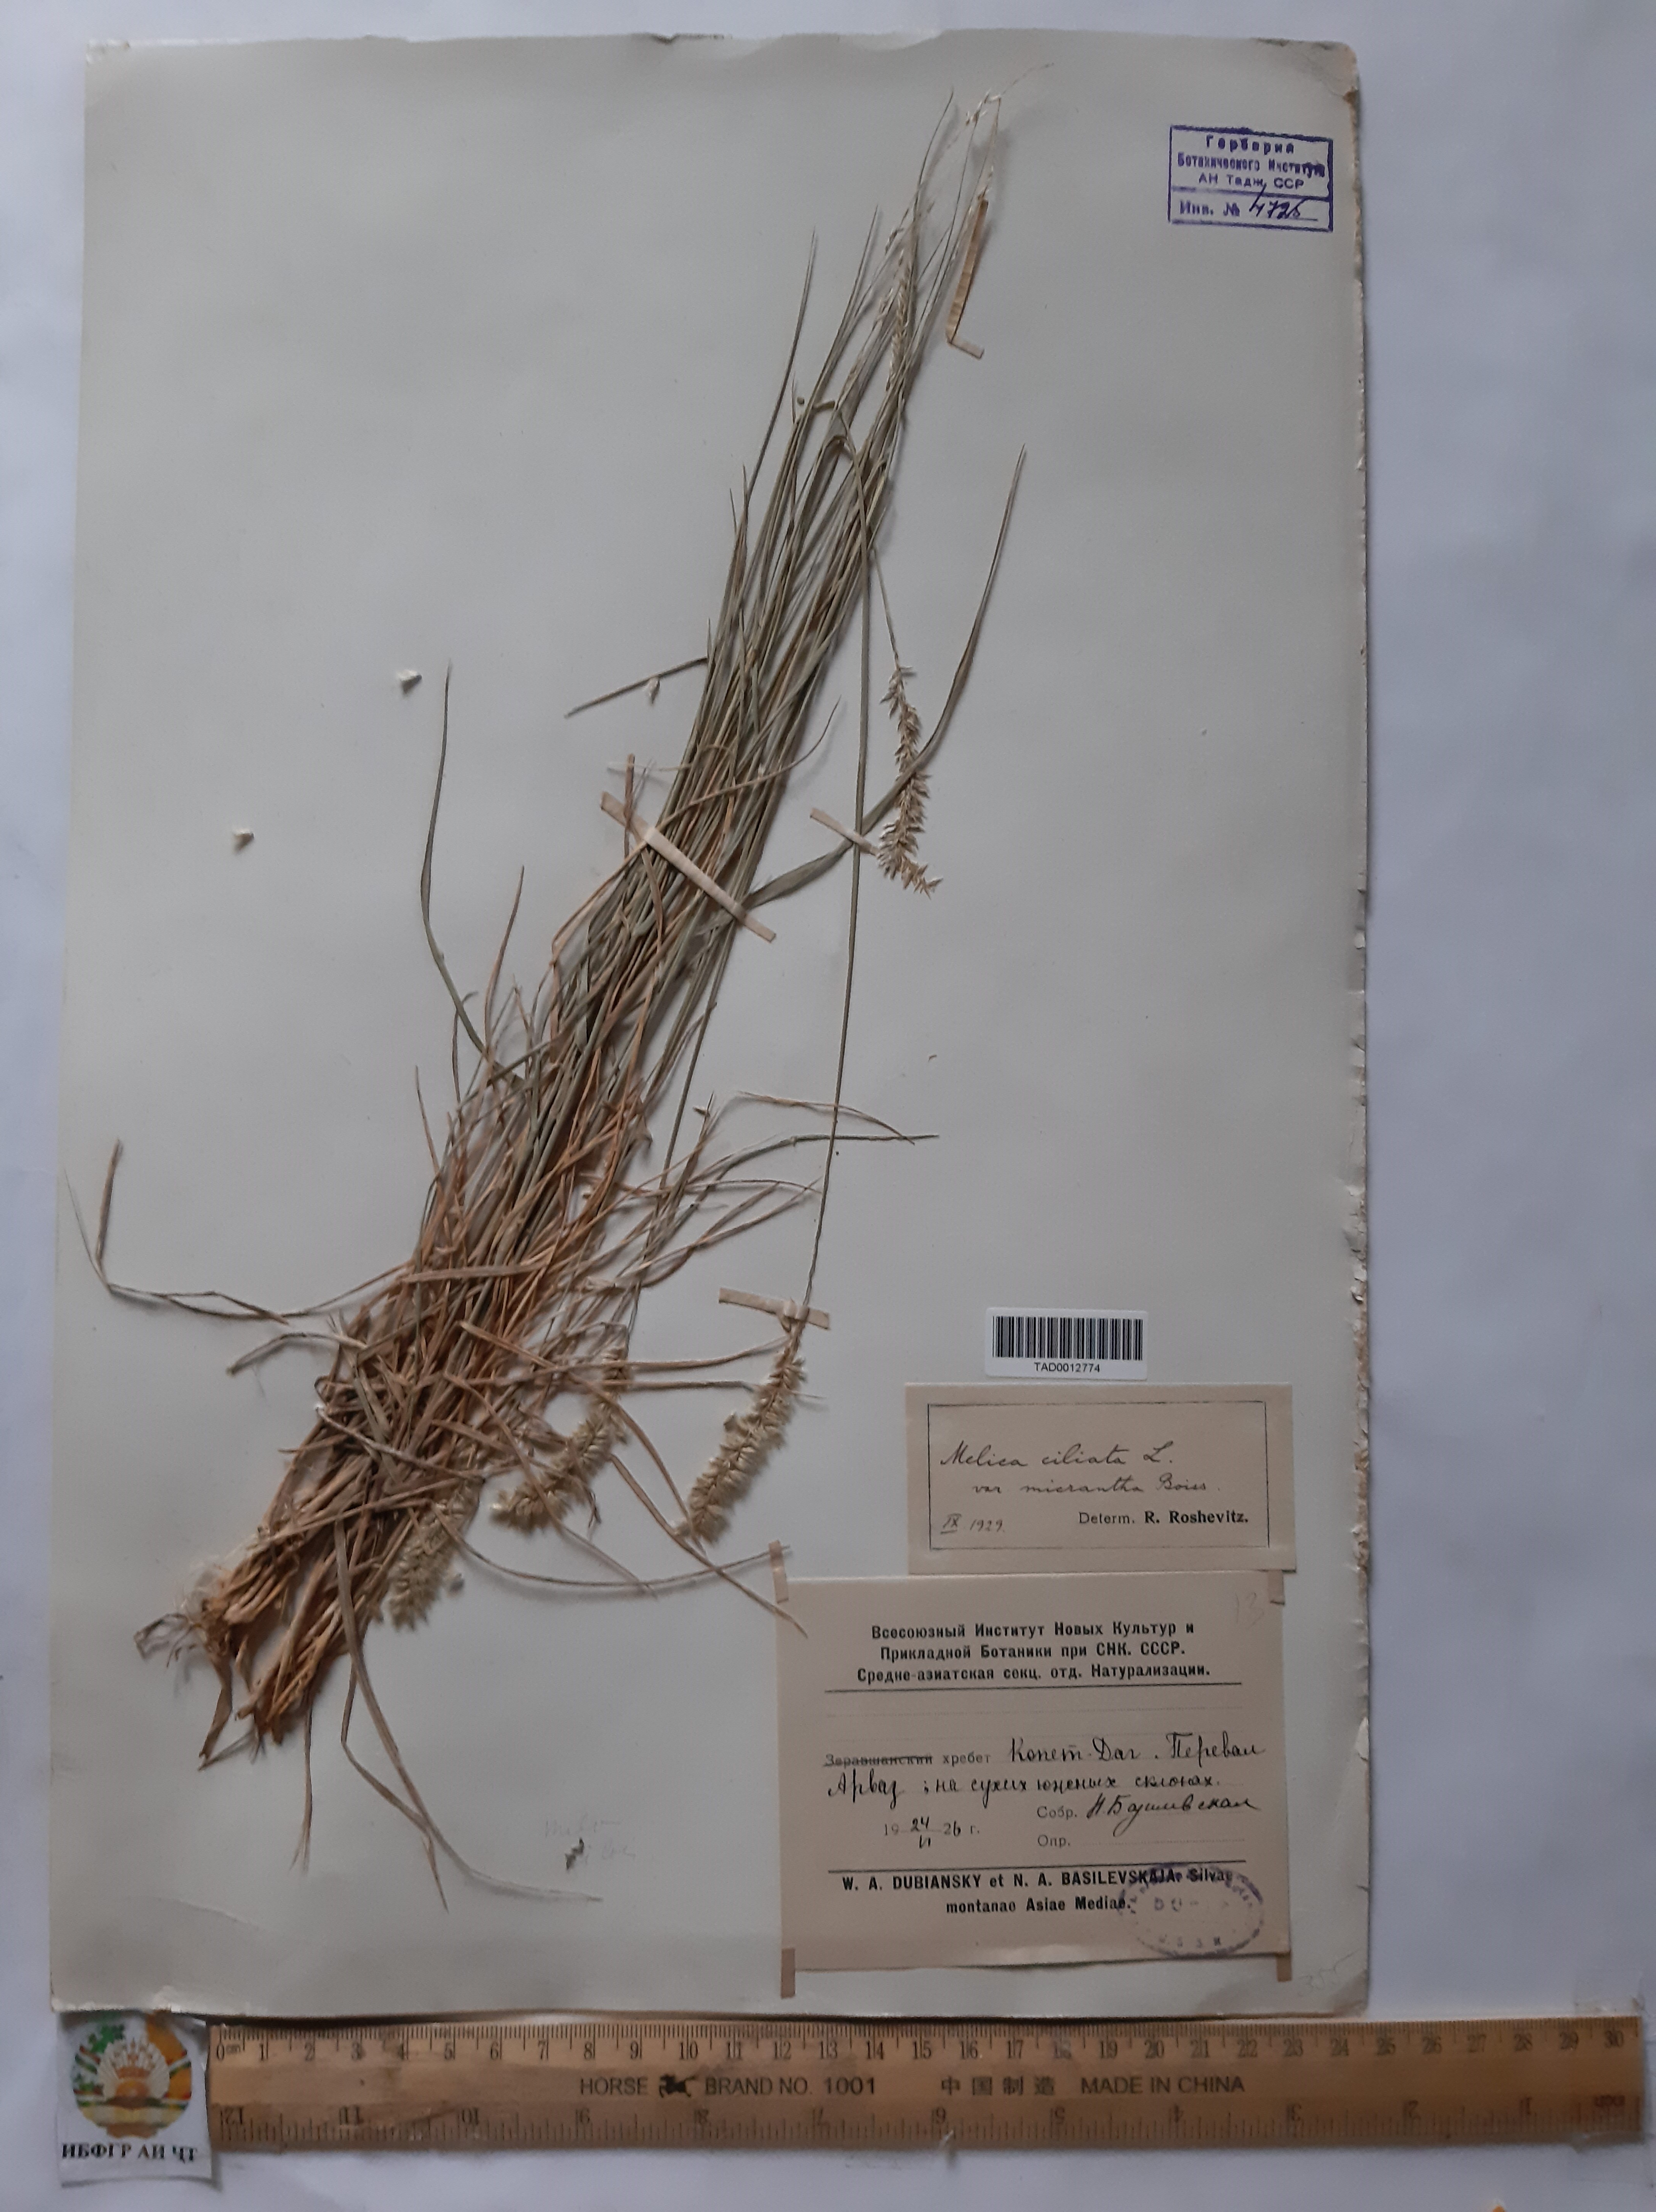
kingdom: Plantae
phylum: Tracheophyta
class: Liliopsida
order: Poales
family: Poaceae
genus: Melica
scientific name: Melica ciliata
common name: Hairy melicgrass
